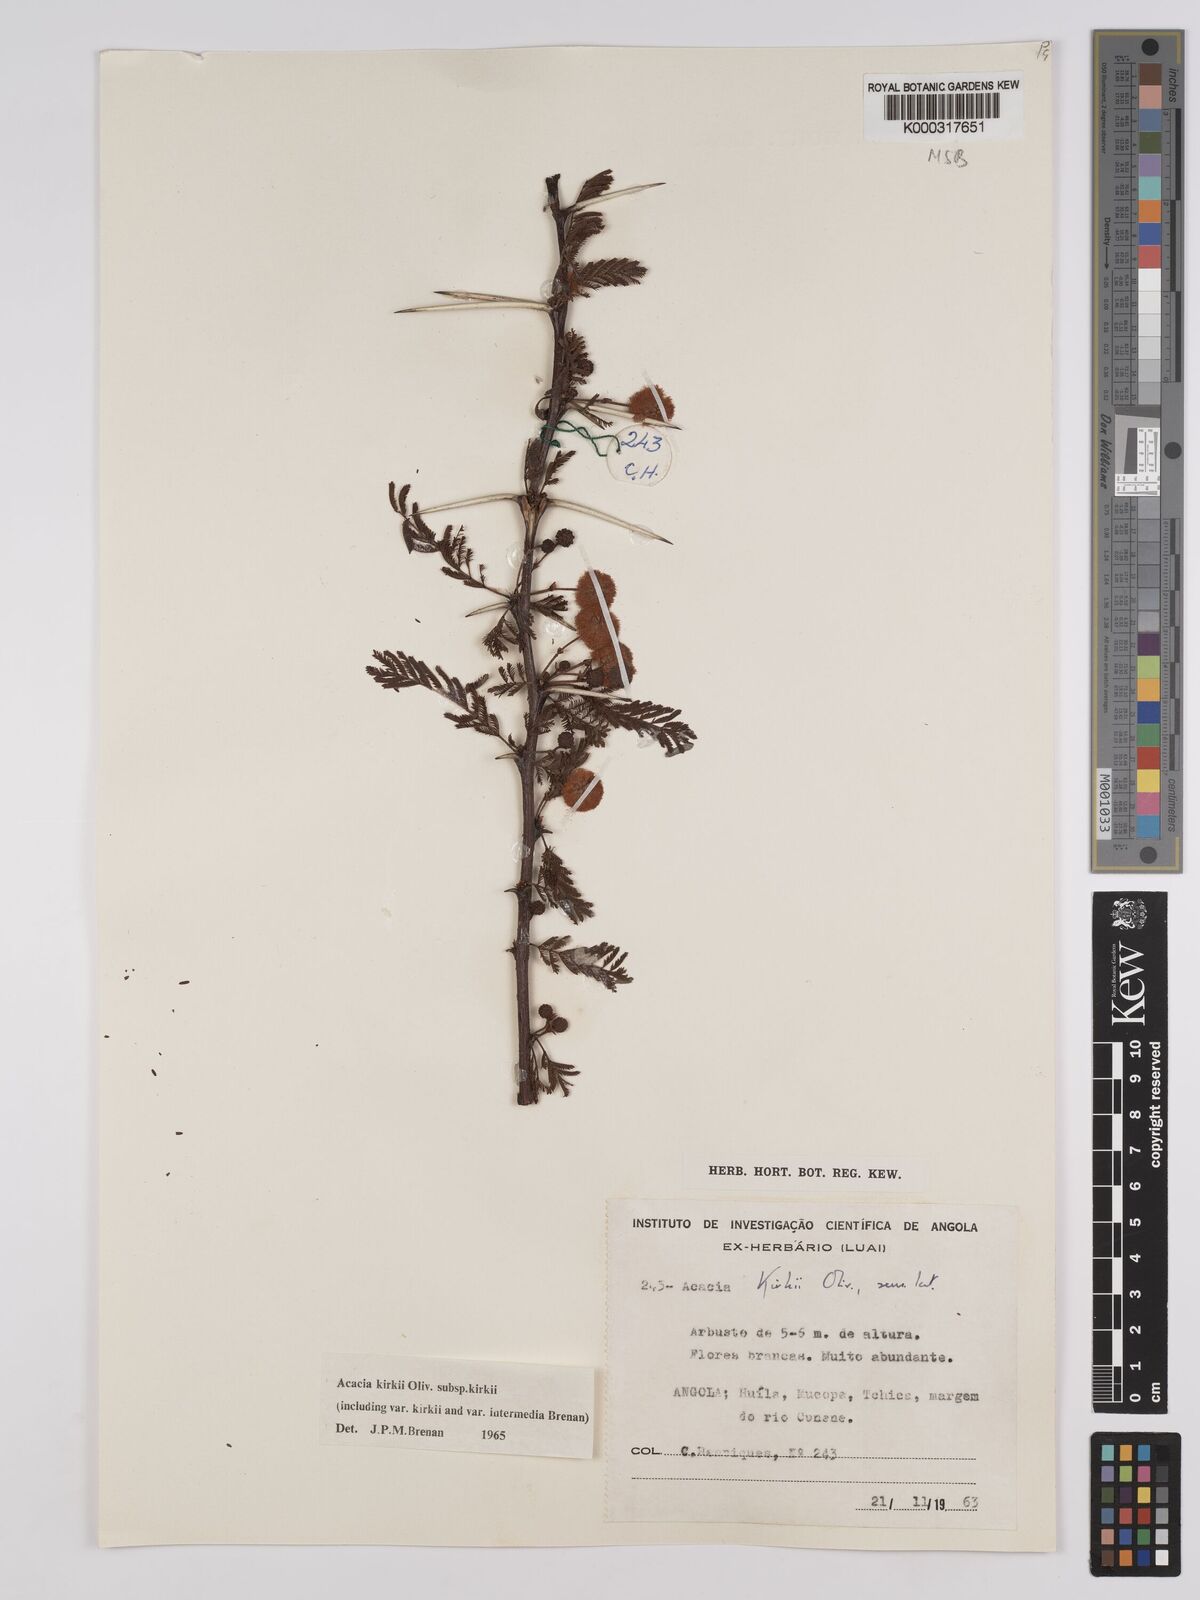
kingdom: Plantae
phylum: Tracheophyta
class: Magnoliopsida
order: Fabales
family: Fabaceae
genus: Vachellia
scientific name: Vachellia kirkii
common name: Flood-plain acacia
